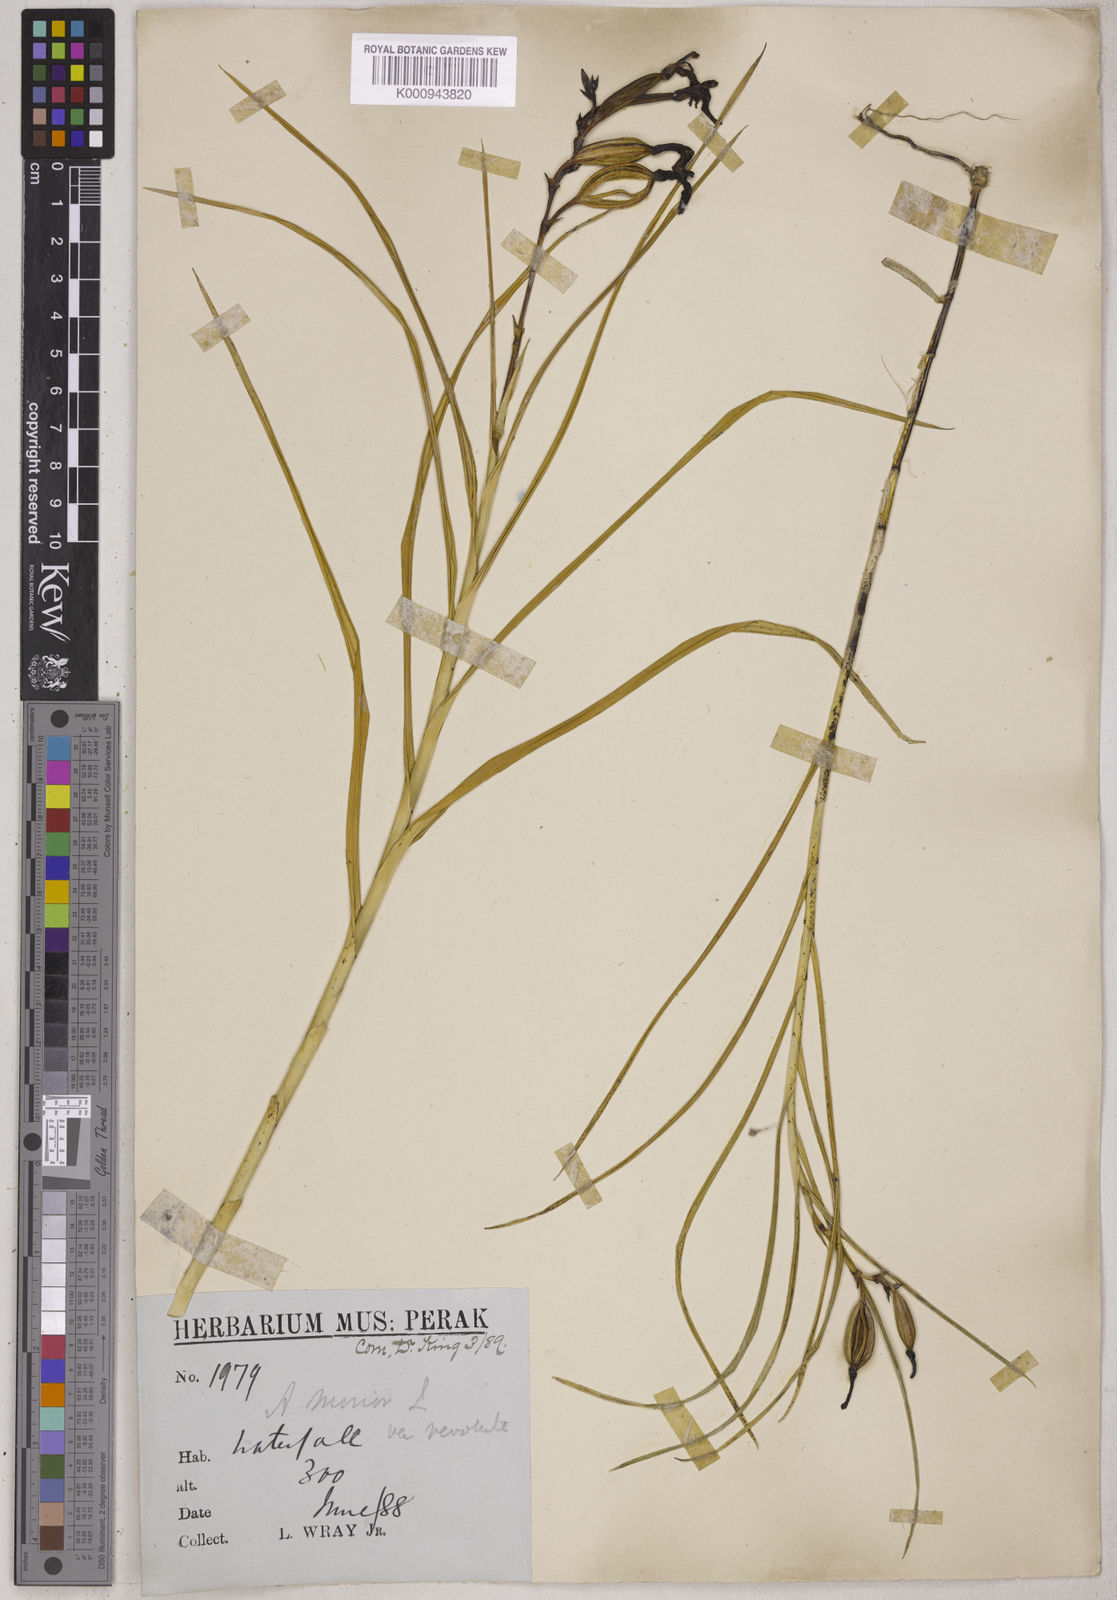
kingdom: Plantae
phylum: Tracheophyta
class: Liliopsida
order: Asparagales
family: Orchidaceae
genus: Arundina
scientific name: Arundina graminifolia
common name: Bamboo orchid
